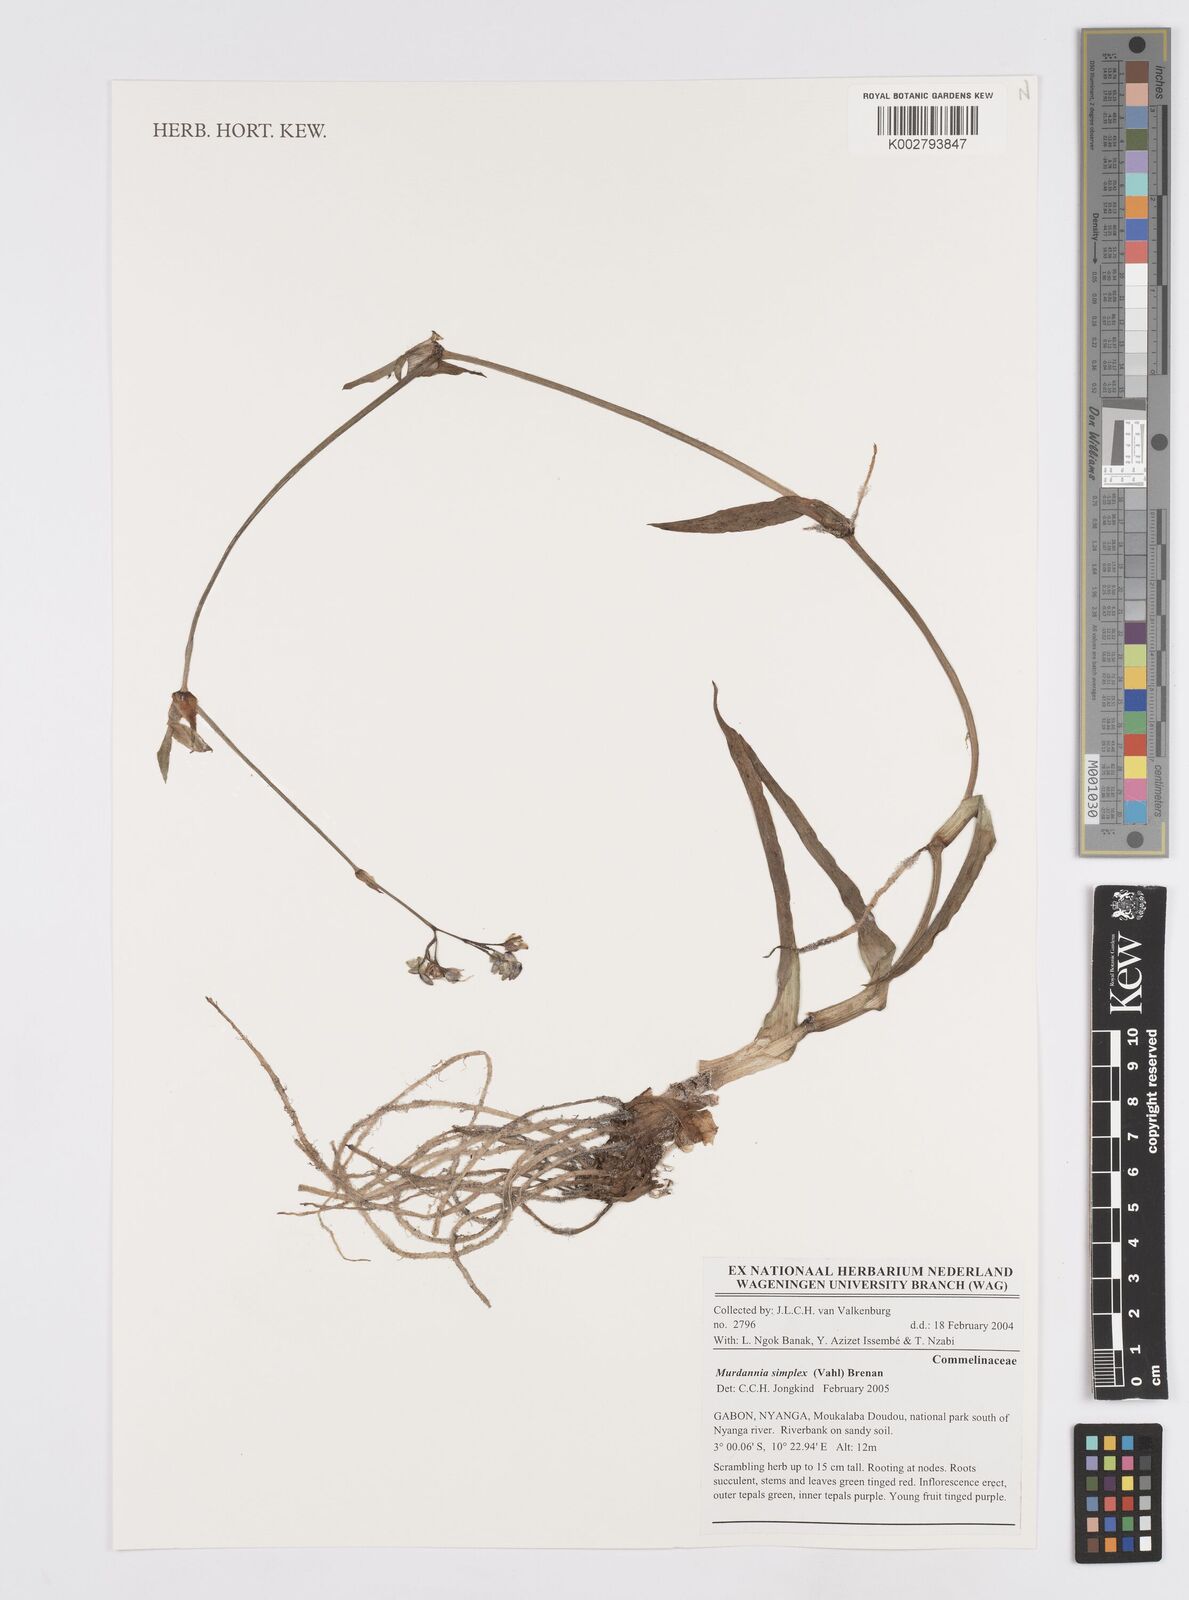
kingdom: Plantae
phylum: Tracheophyta
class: Liliopsida
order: Commelinales
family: Commelinaceae
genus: Murdannia
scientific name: Murdannia simplex
